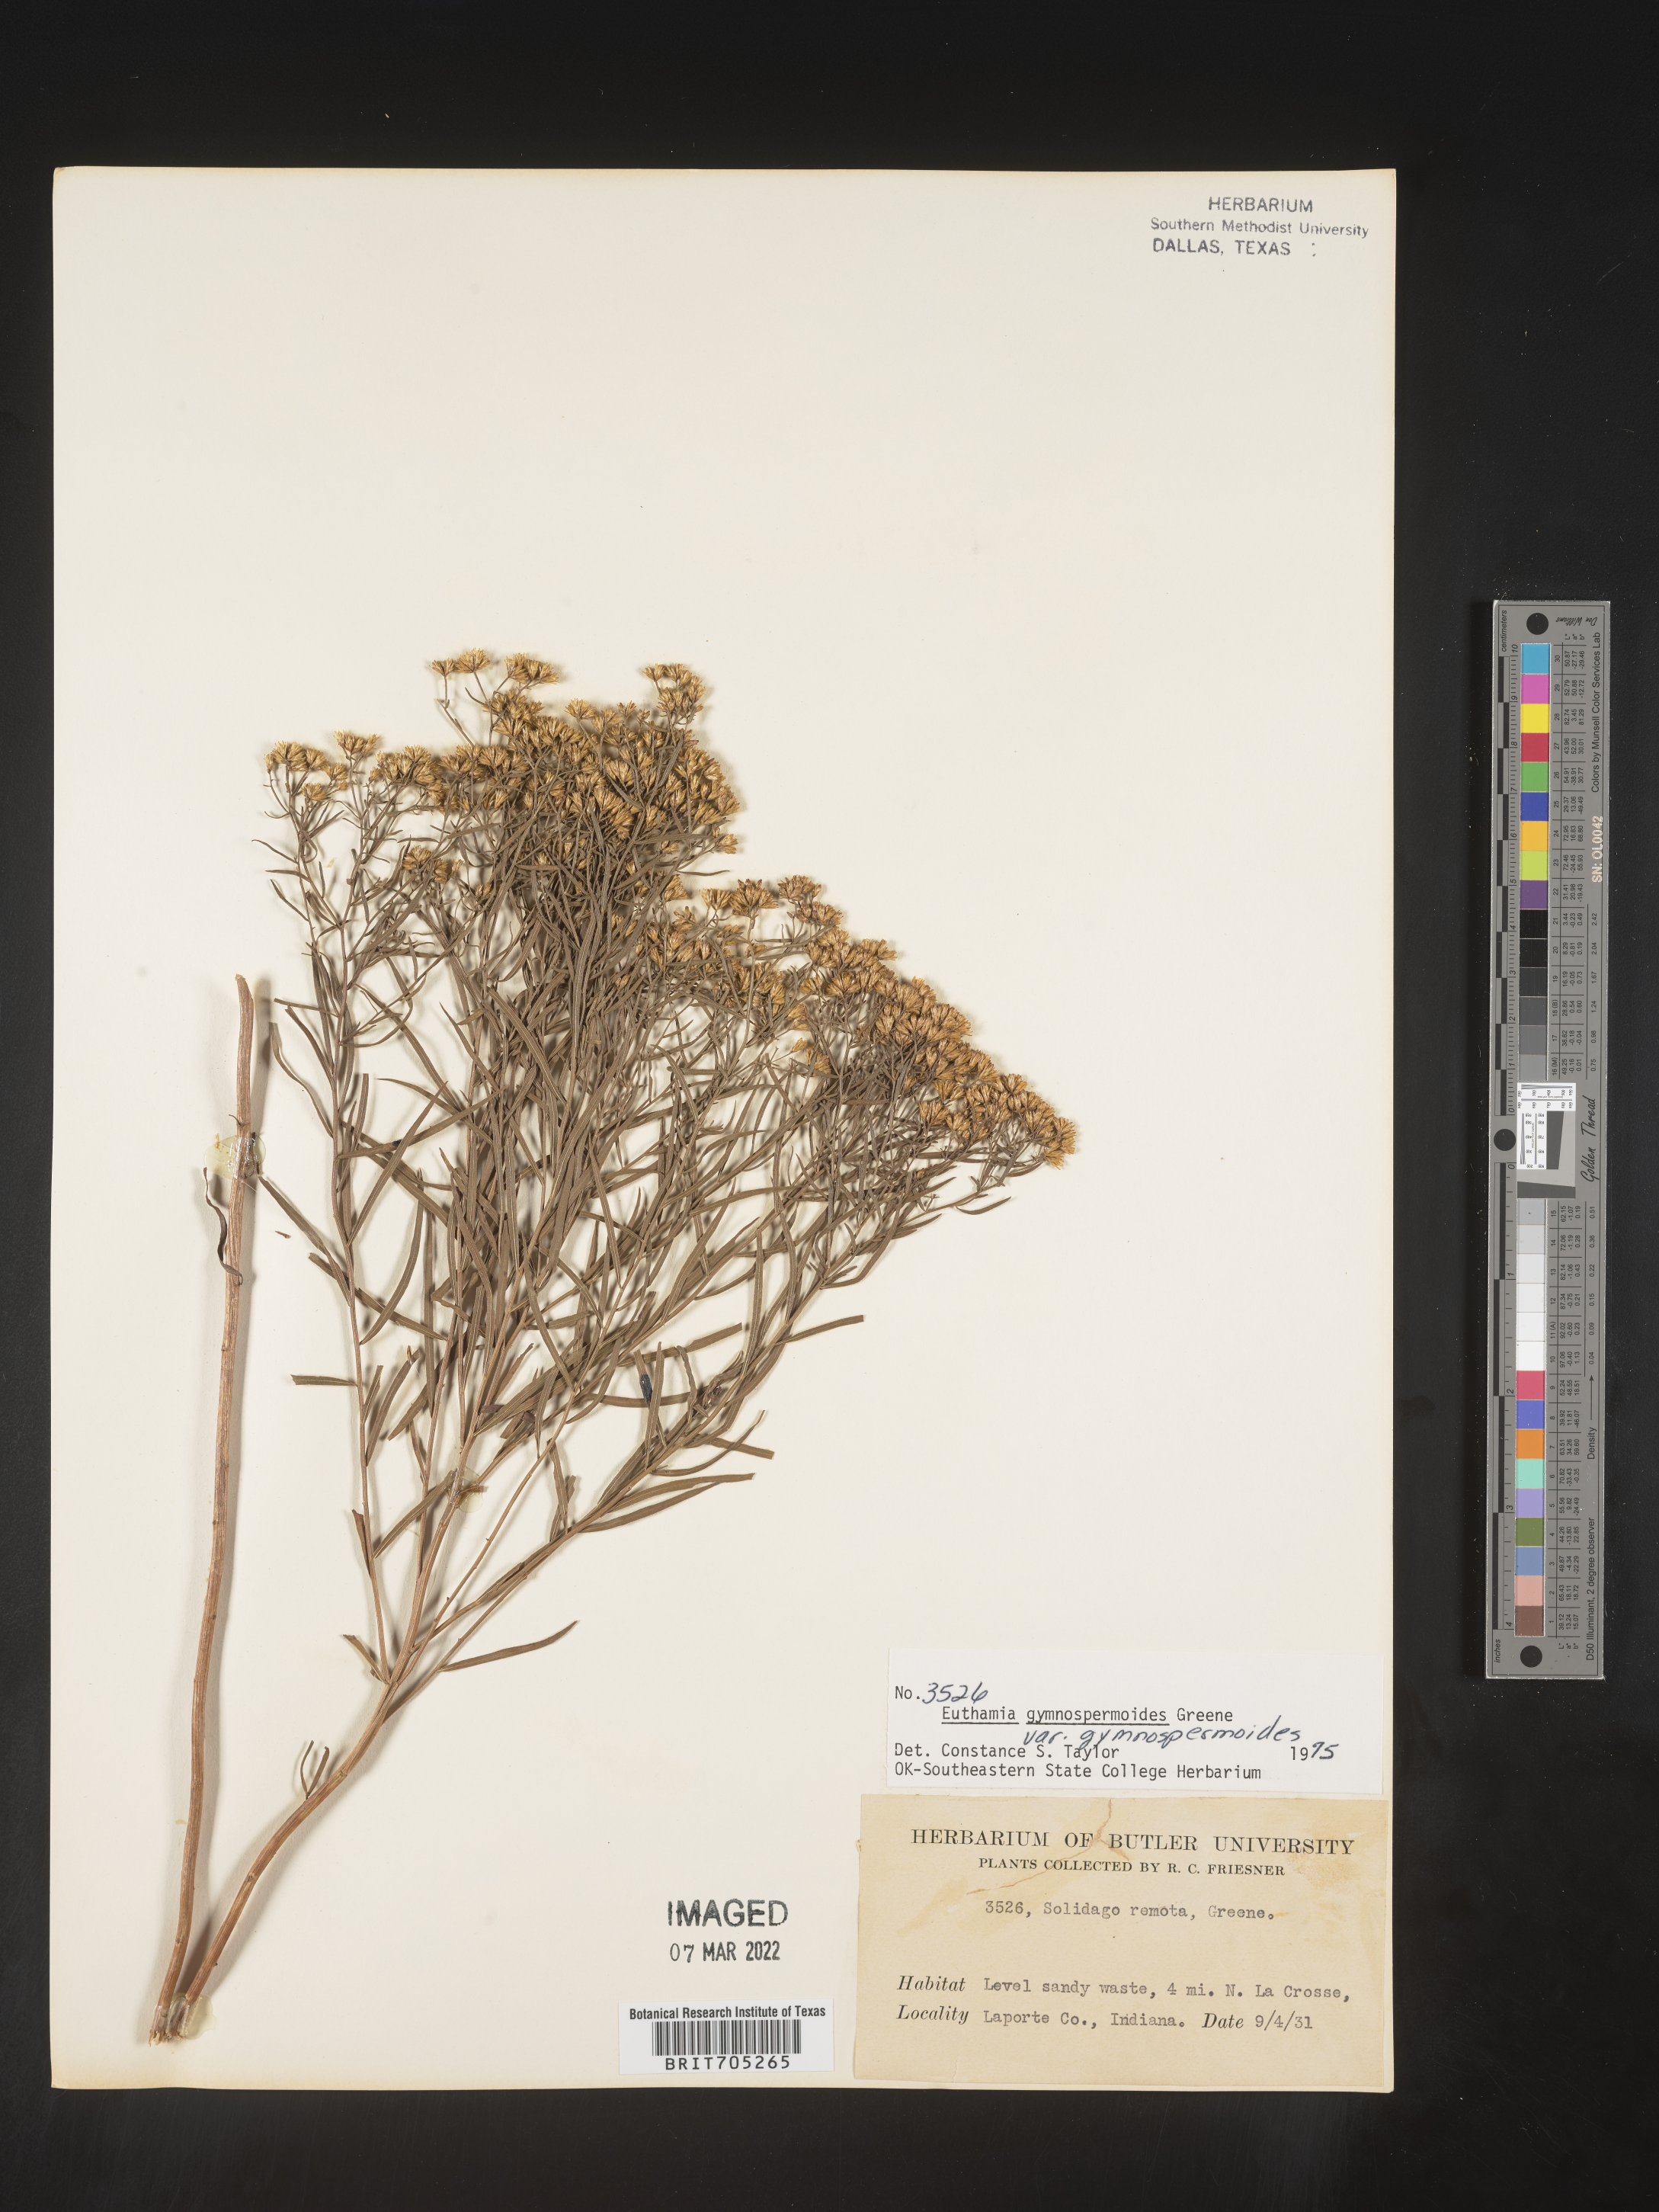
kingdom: Plantae
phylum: Tracheophyta
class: Magnoliopsida
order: Asterales
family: Asteraceae
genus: Euthamia
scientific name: Euthamia gymnospermoides
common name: Great plains goldentop
